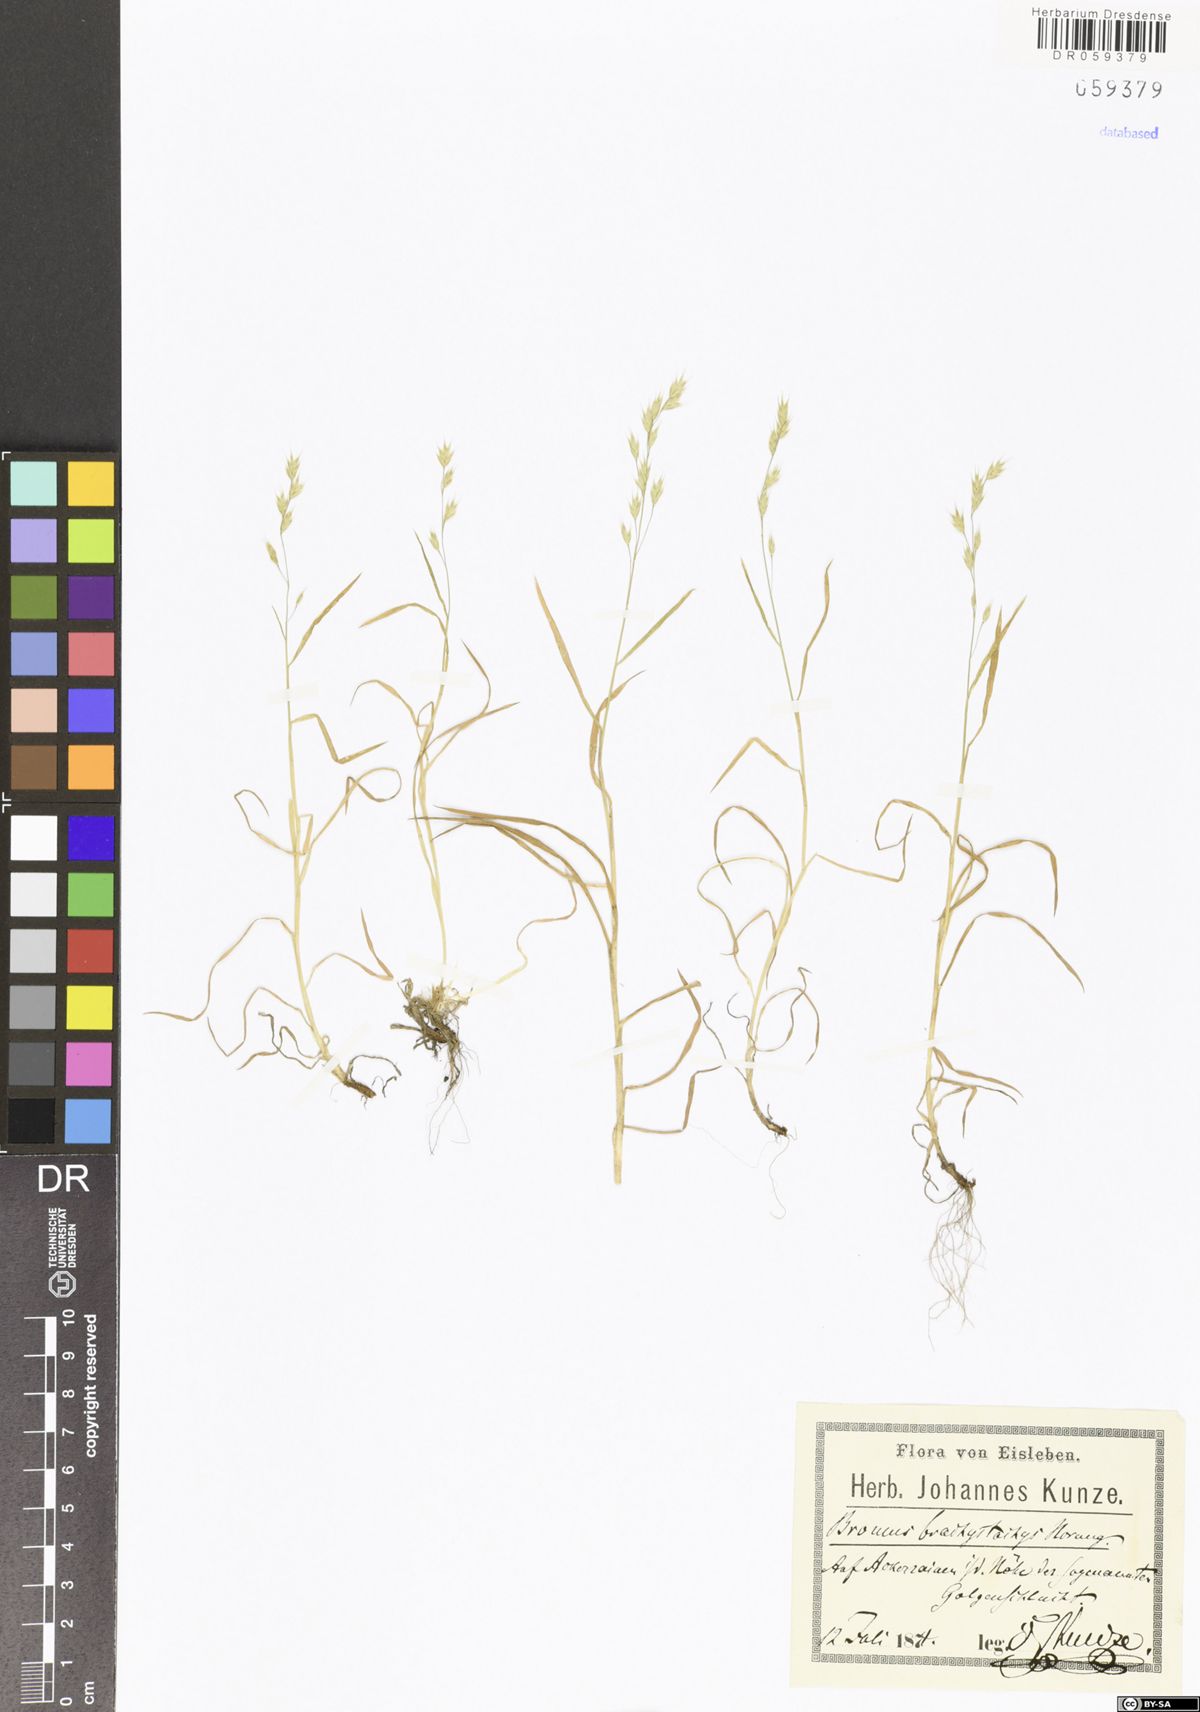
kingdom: Plantae
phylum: Tracheophyta
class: Liliopsida
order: Poales
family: Poaceae
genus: Bromus
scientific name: Bromus brachystachys
